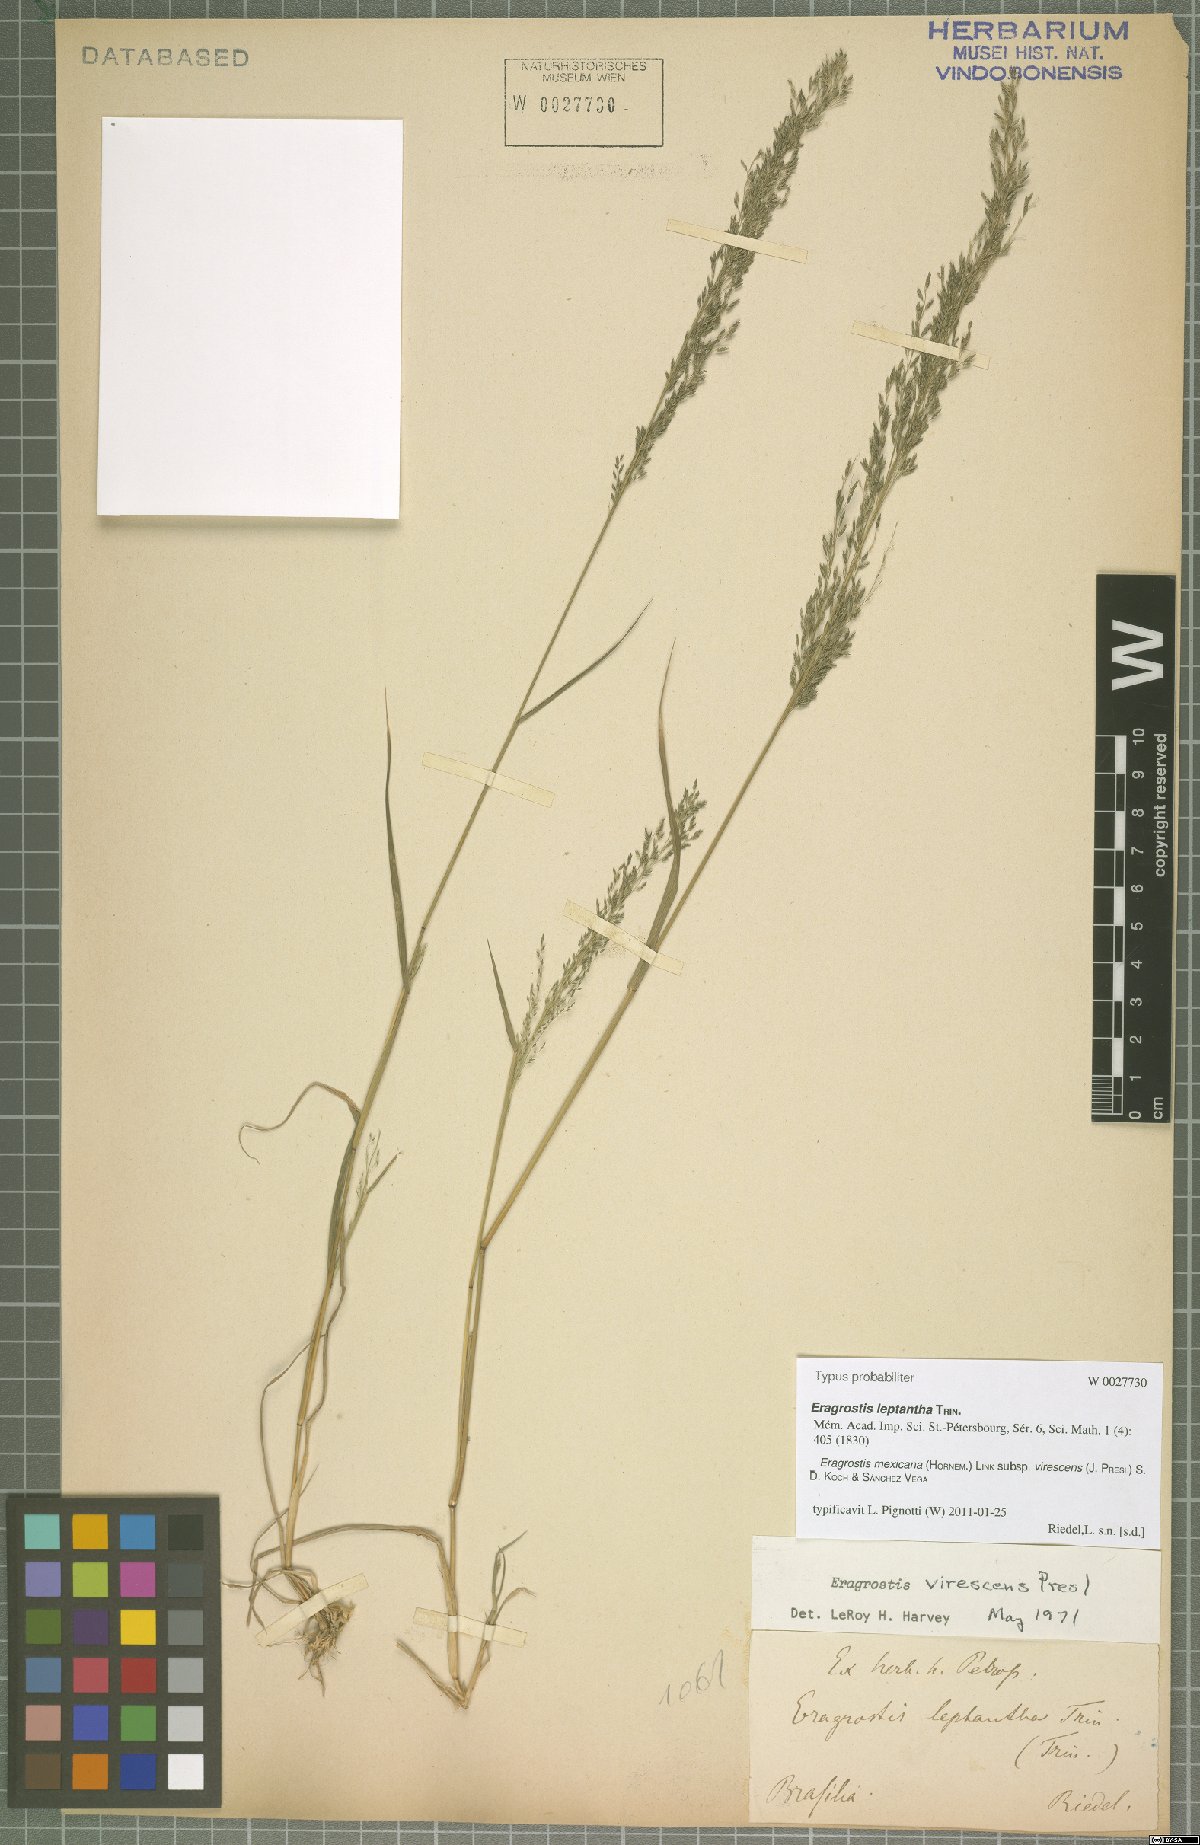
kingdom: Plantae
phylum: Tracheophyta
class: Liliopsida
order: Poales
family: Poaceae
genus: Eragrostis
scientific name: Eragrostis virescens
